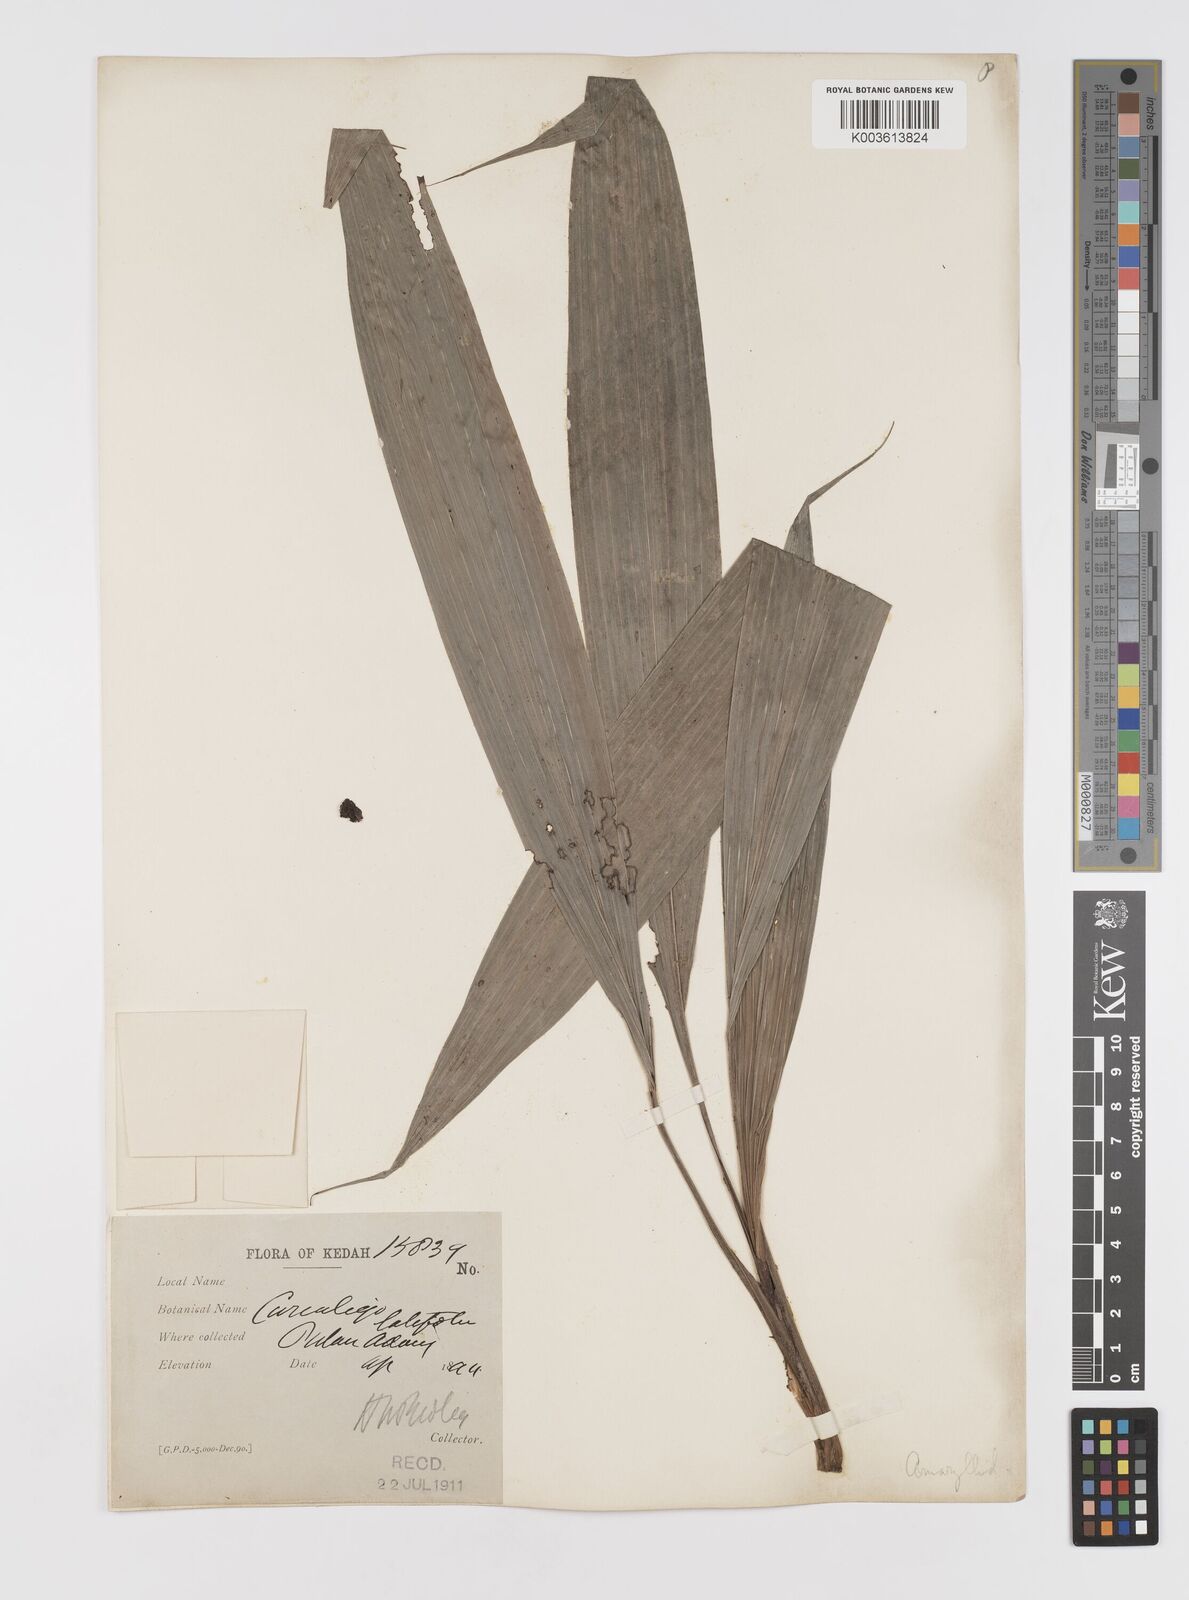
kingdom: Plantae
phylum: Tracheophyta
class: Liliopsida
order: Asparagales
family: Hypoxidaceae
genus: Curculigo
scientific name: Curculigo latifolia
